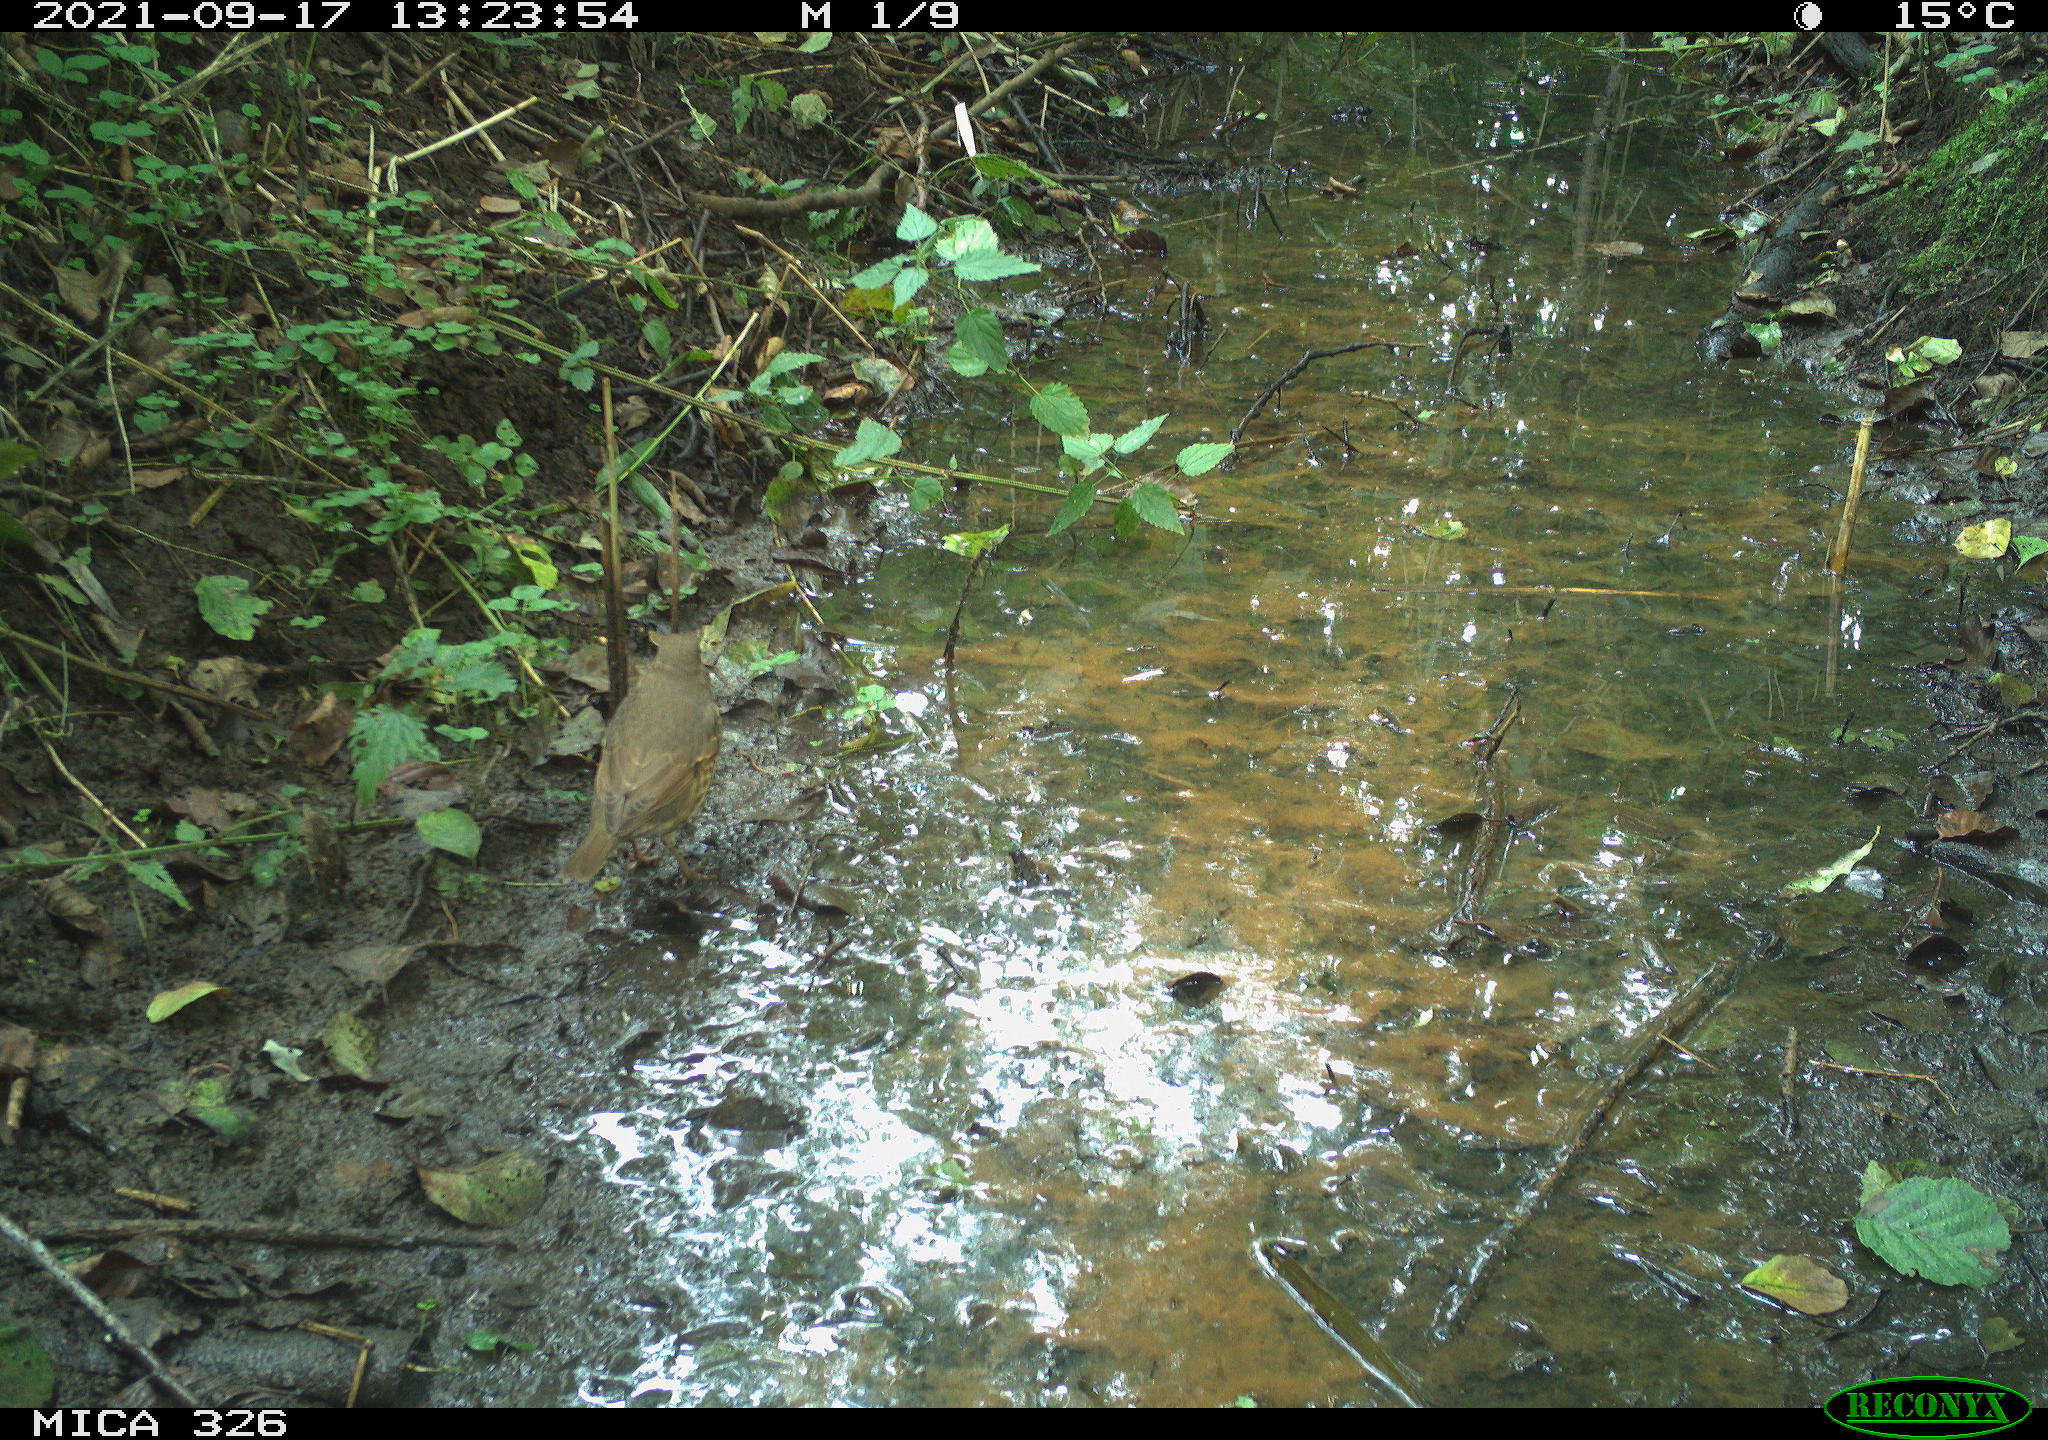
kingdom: Animalia
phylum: Chordata
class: Aves
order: Passeriformes
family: Turdidae
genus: Turdus
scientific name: Turdus philomelos
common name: Song thrush
